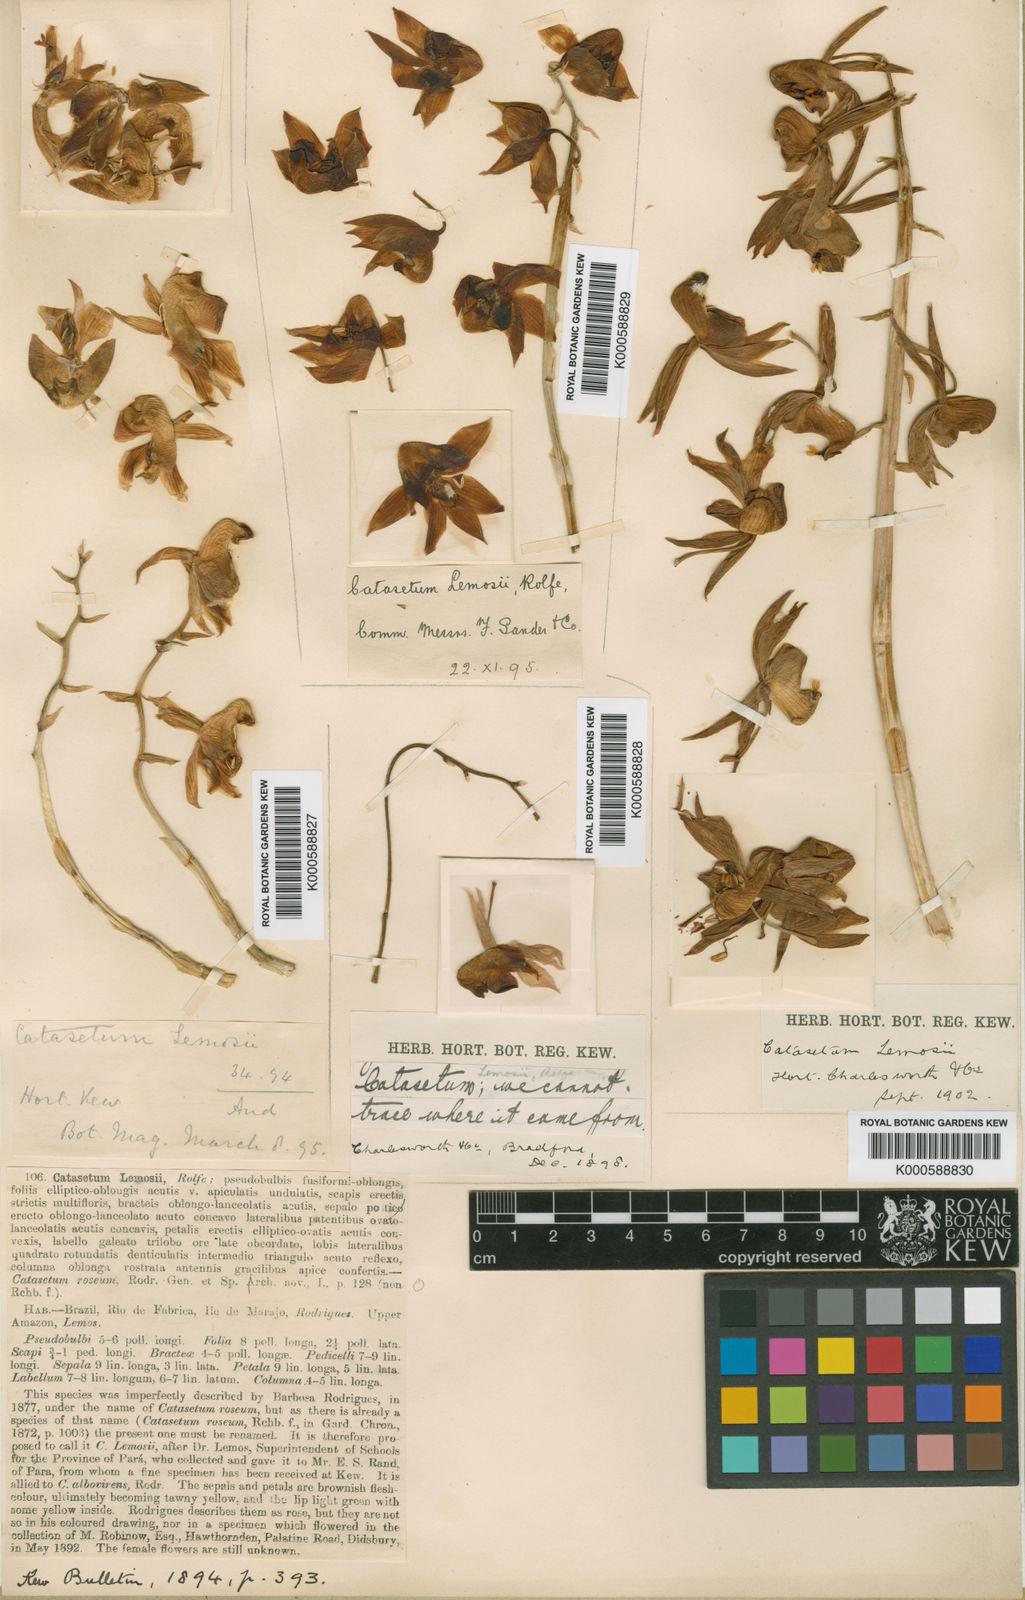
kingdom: Plantae
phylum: Tracheophyta
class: Liliopsida
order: Asparagales
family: Orchidaceae
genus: Catasetum
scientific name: Catasetum lemosii
